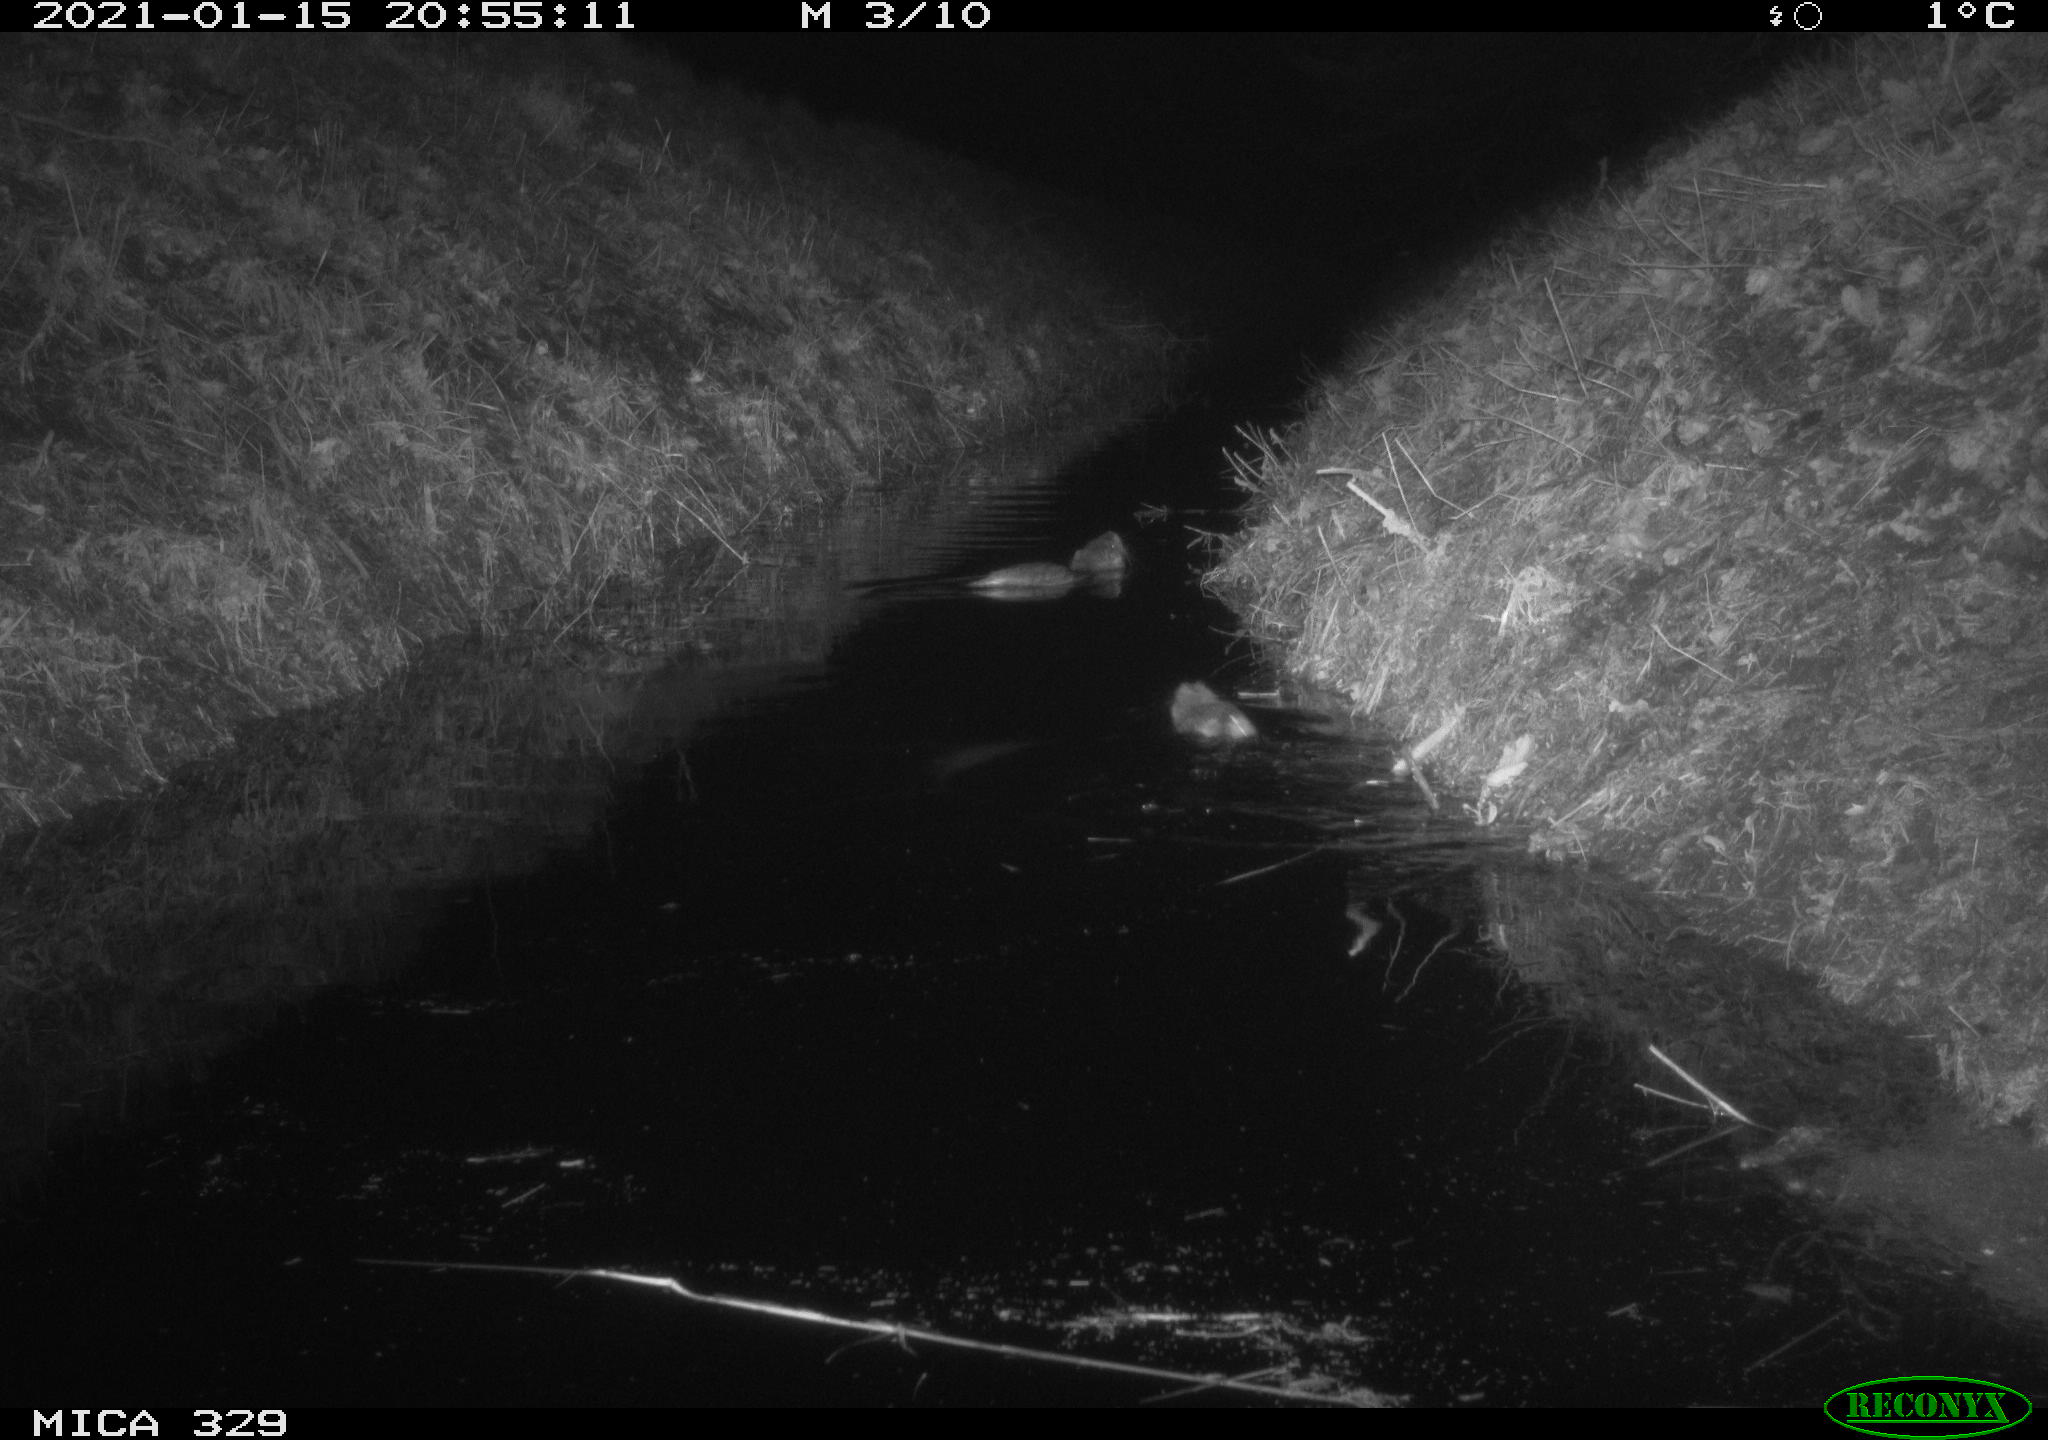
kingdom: Animalia
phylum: Chordata
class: Mammalia
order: Rodentia
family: Myocastoridae
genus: Myocastor
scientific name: Myocastor coypus
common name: Coypu
